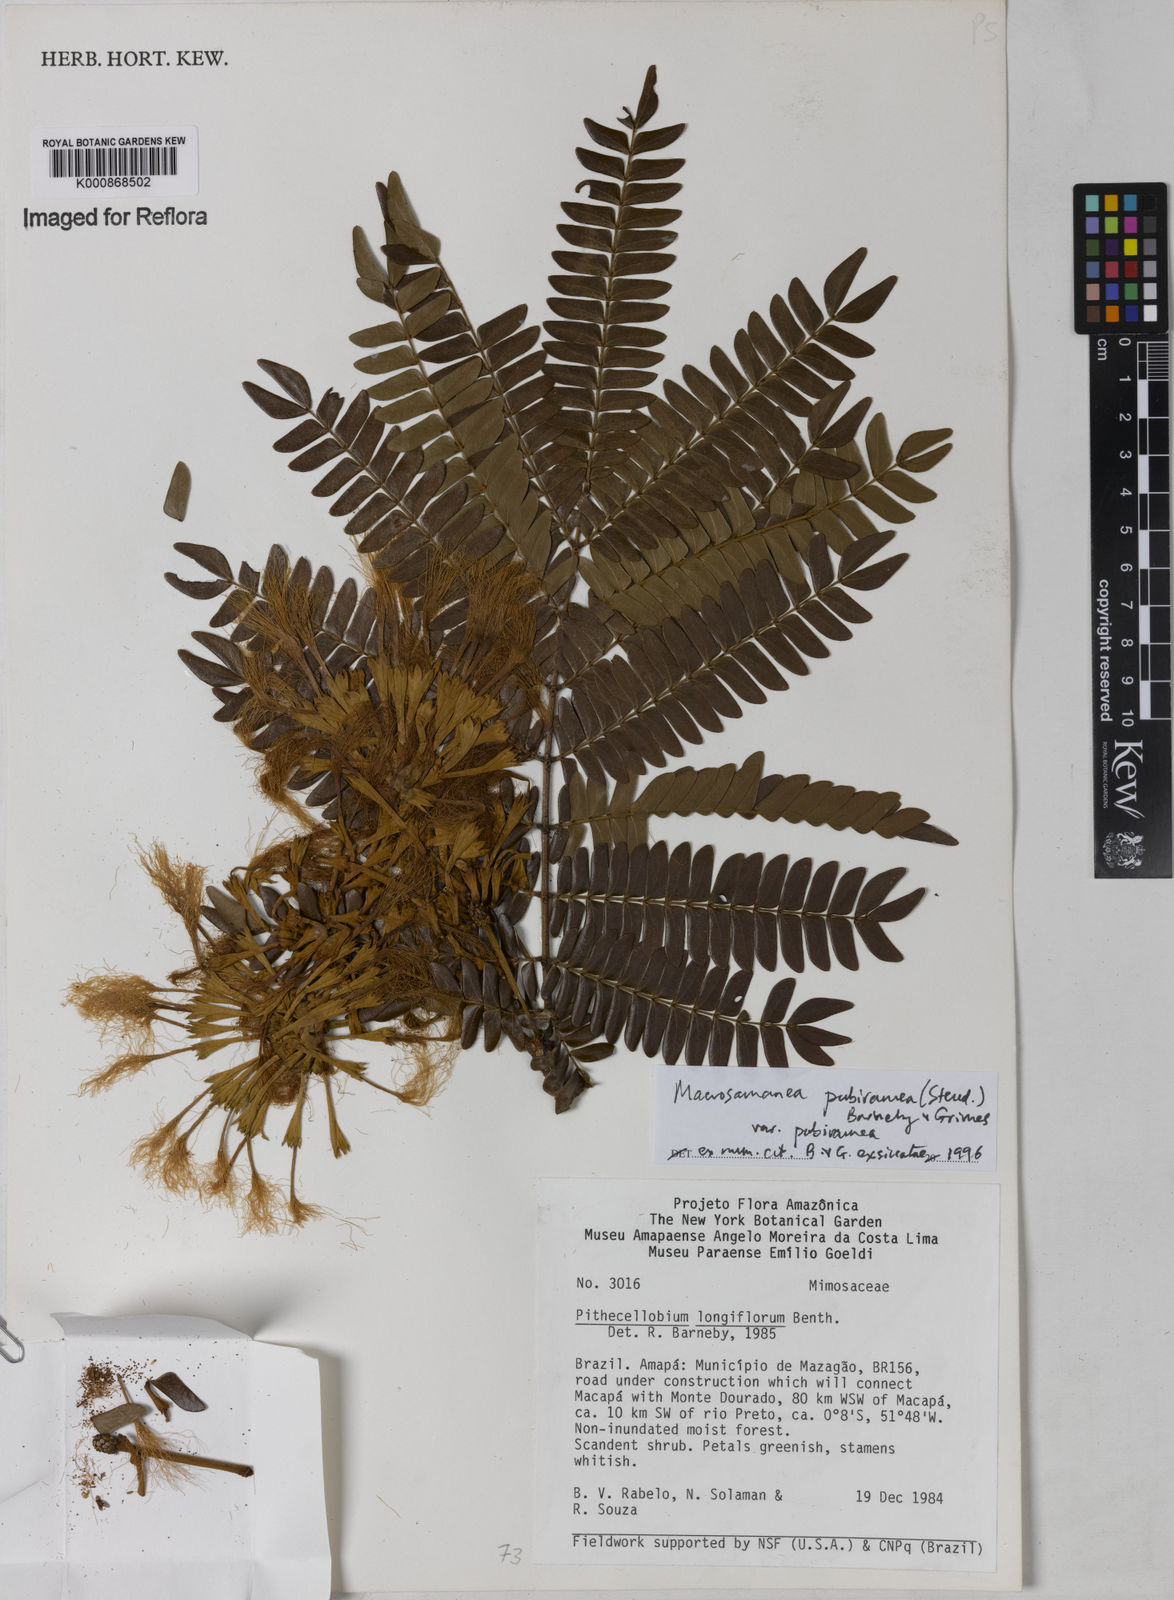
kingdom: Plantae
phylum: Tracheophyta
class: Magnoliopsida
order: Fabales
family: Fabaceae
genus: Macrosamanea
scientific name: Macrosamanea pubiramea
